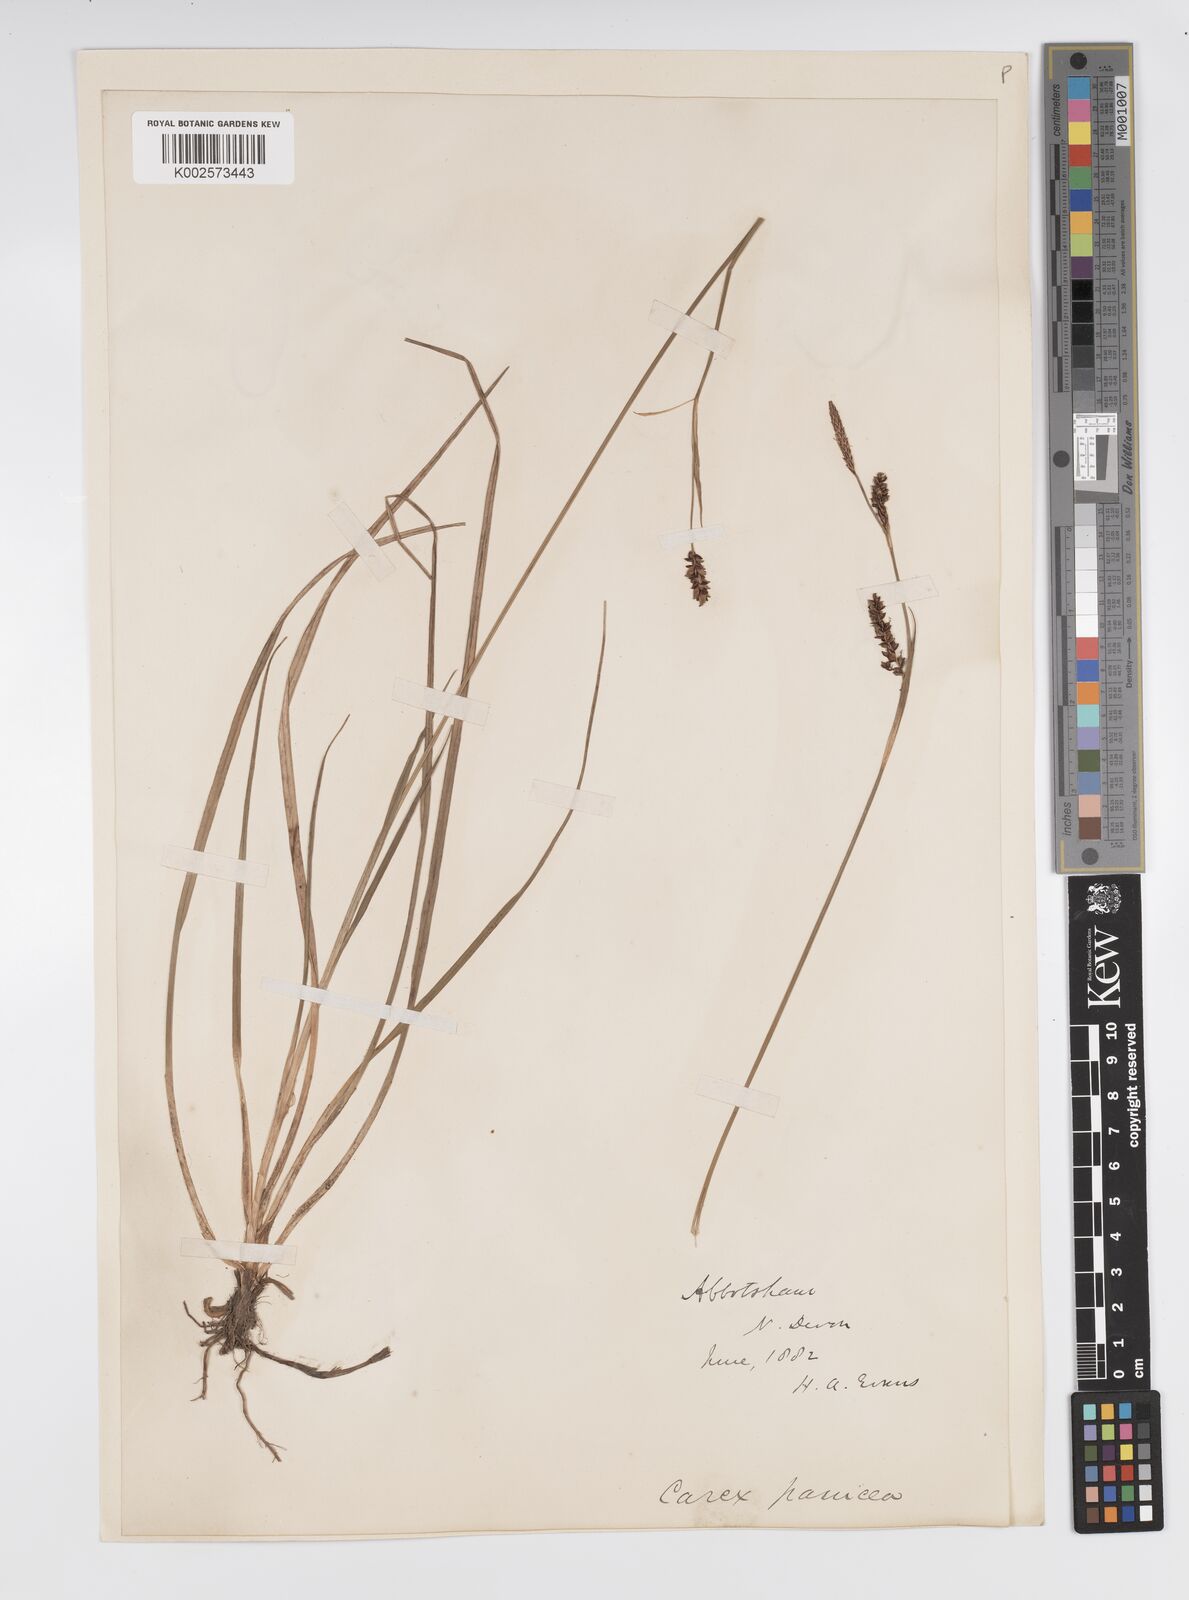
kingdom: Plantae
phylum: Tracheophyta
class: Liliopsida
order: Poales
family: Cyperaceae
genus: Carex
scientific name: Carex panicea
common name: Carnation sedge
